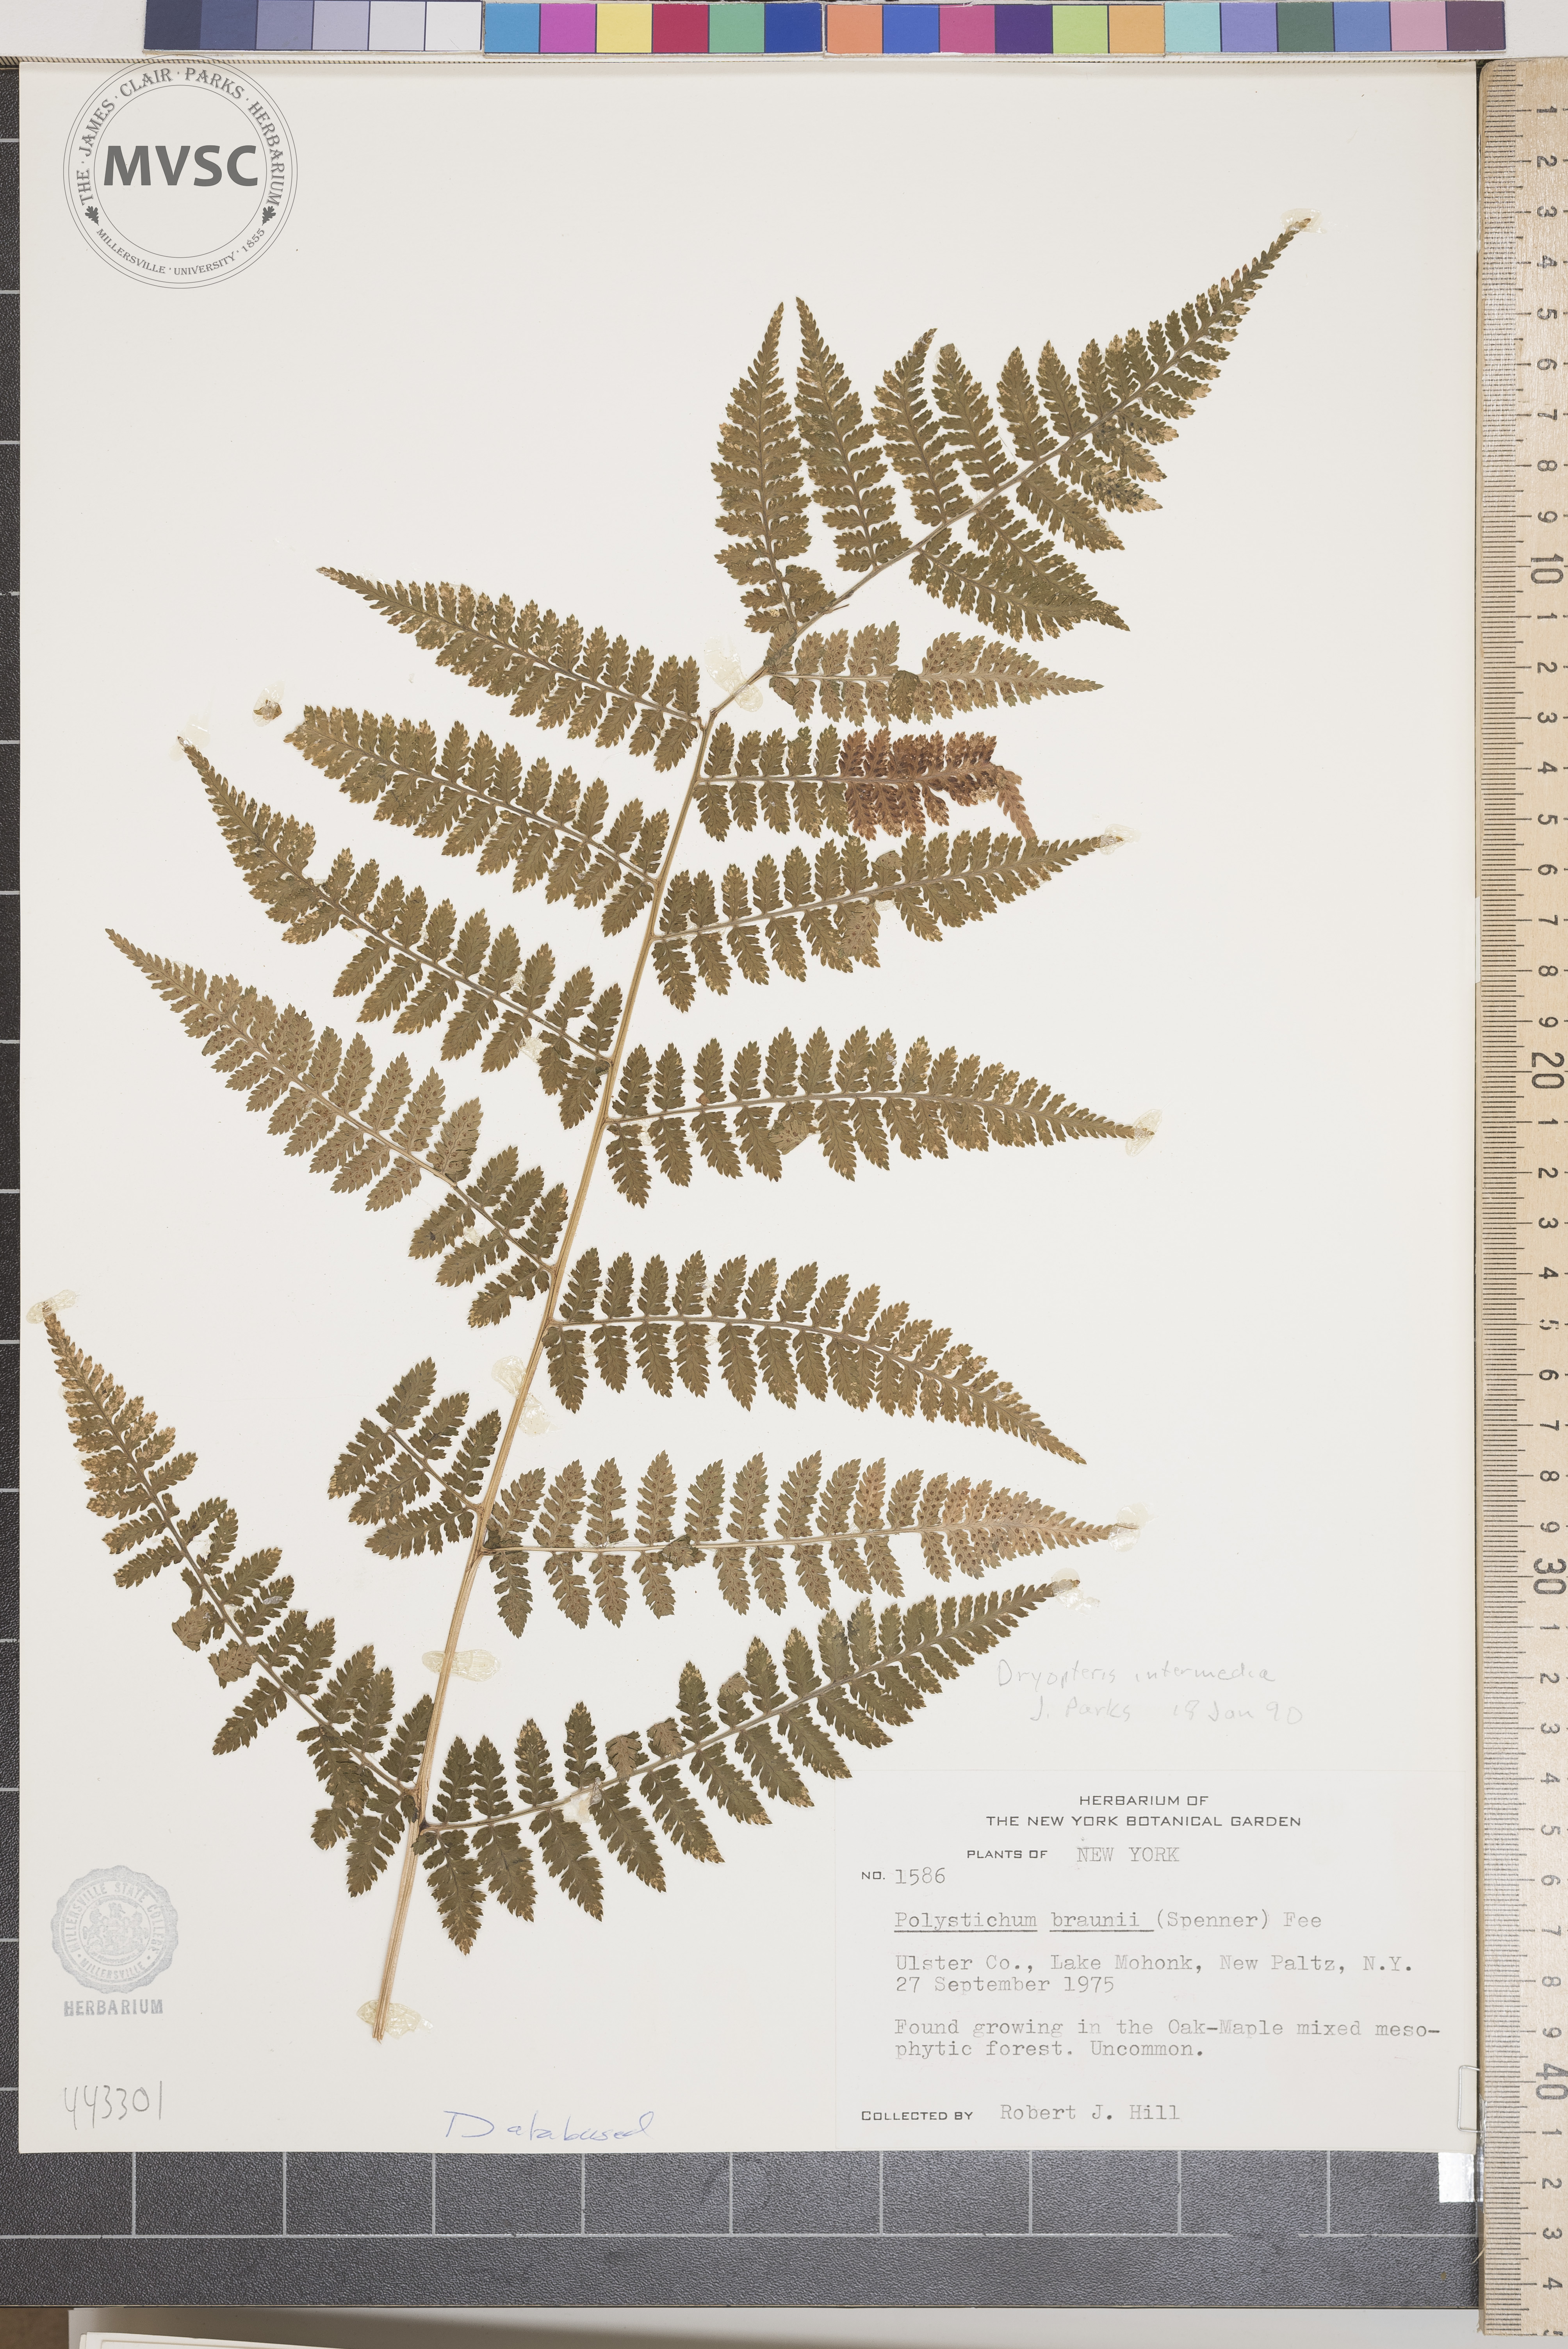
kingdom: Plantae
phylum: Tracheophyta
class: Polypodiopsida
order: Polypodiales
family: Dryopteridaceae
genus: Dryopteris
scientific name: Dryopteris intermedia
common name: Evergreen wood fern
